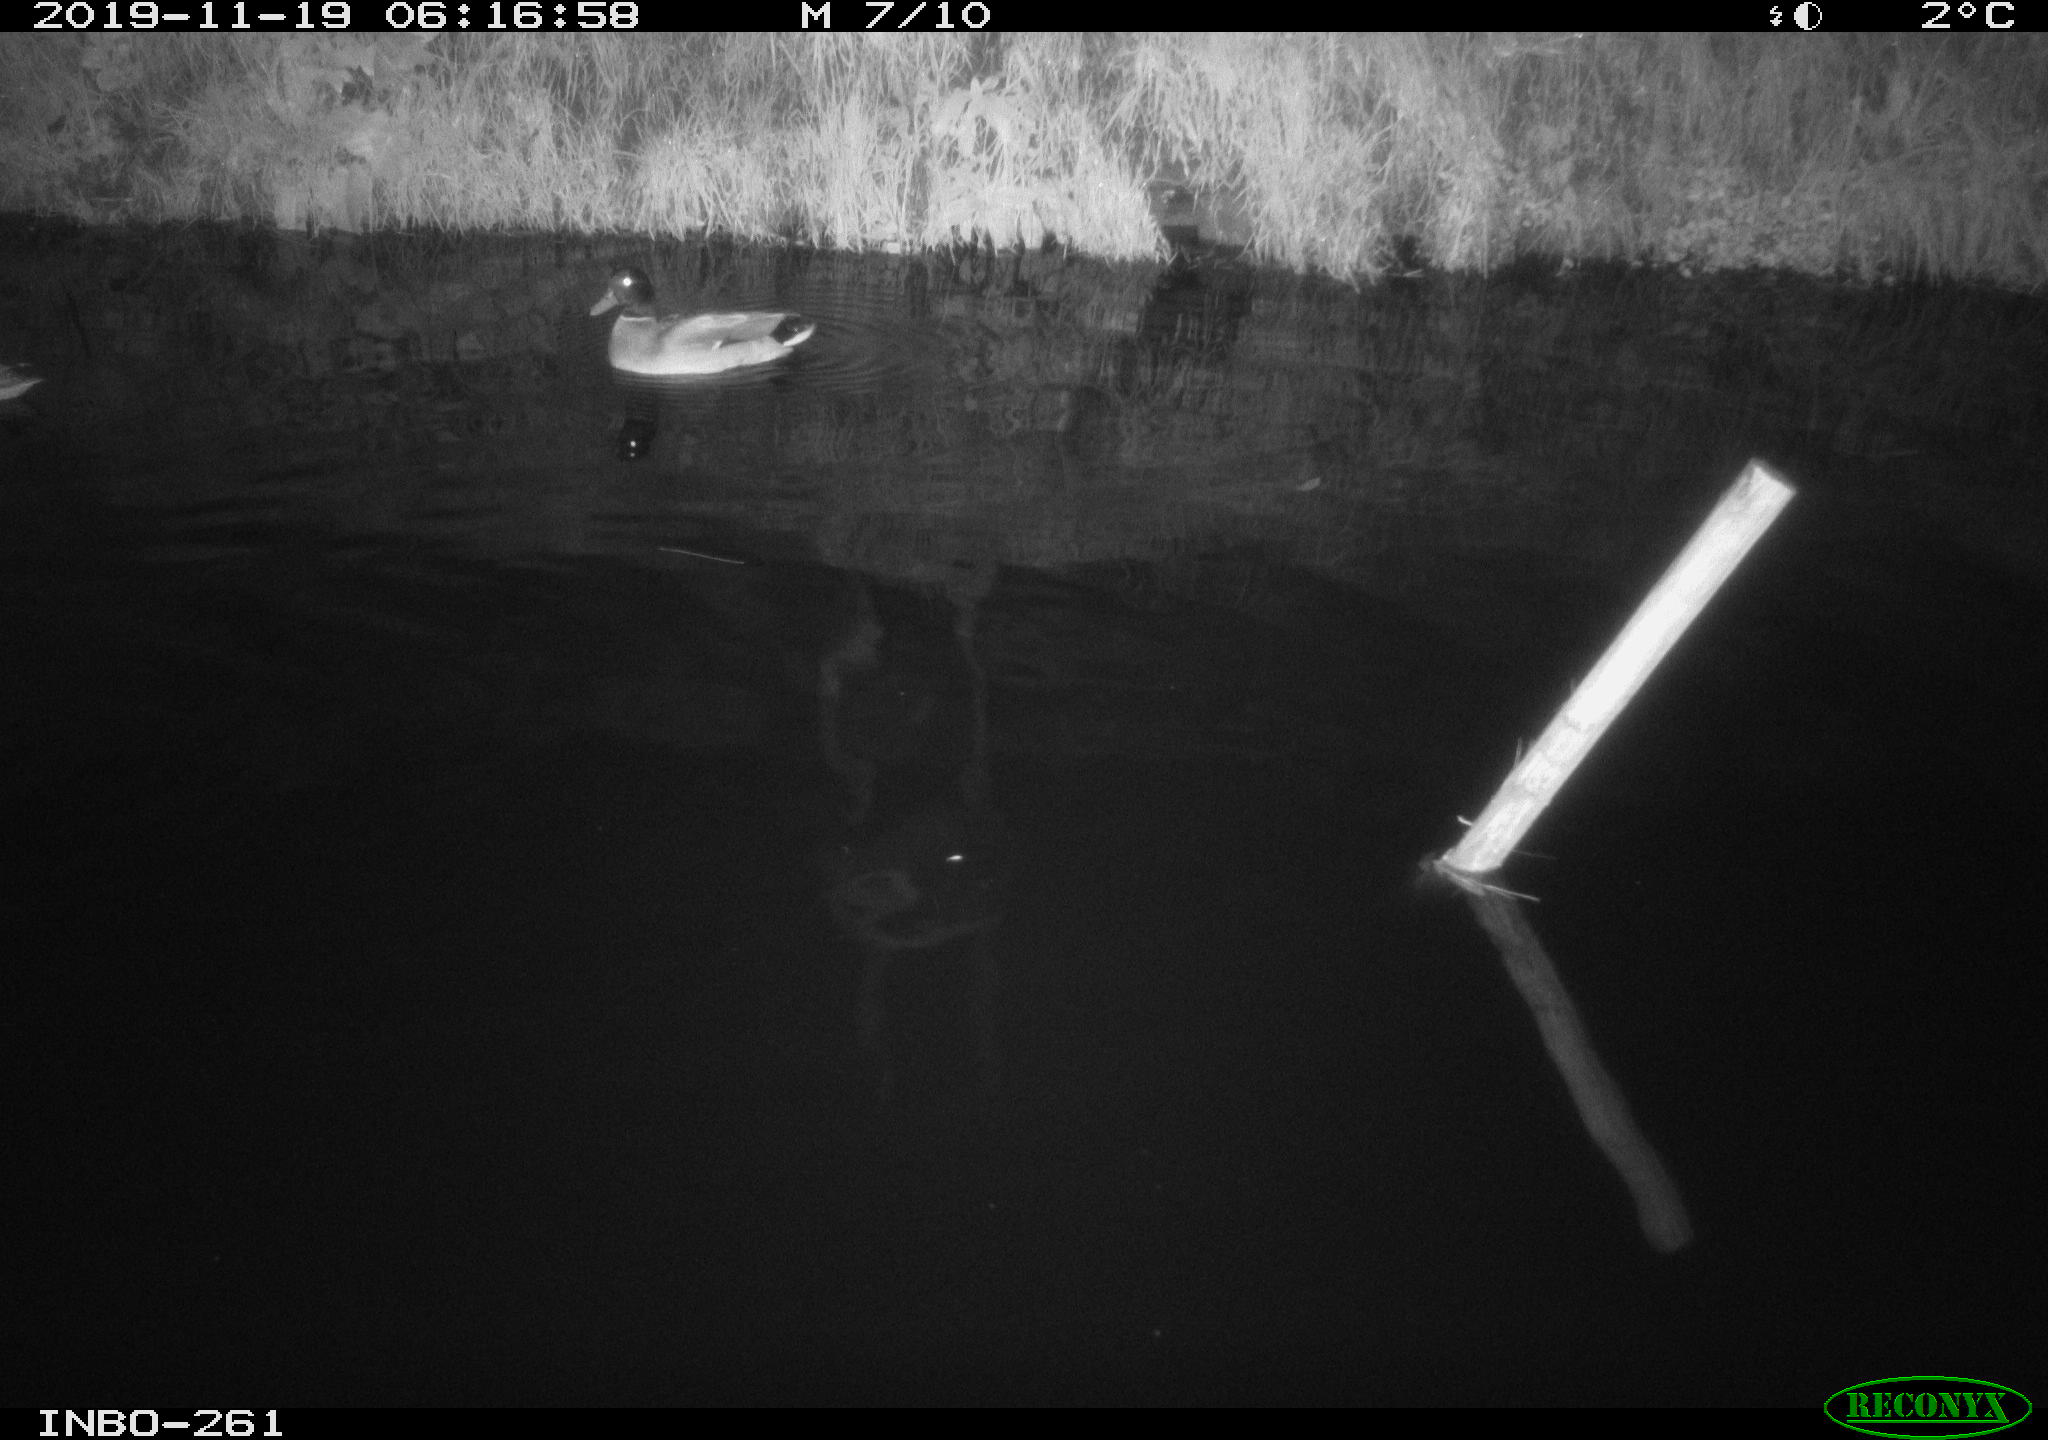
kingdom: Animalia
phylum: Chordata
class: Aves
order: Anseriformes
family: Anatidae
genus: Anas
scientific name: Anas platyrhynchos
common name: Mallard
